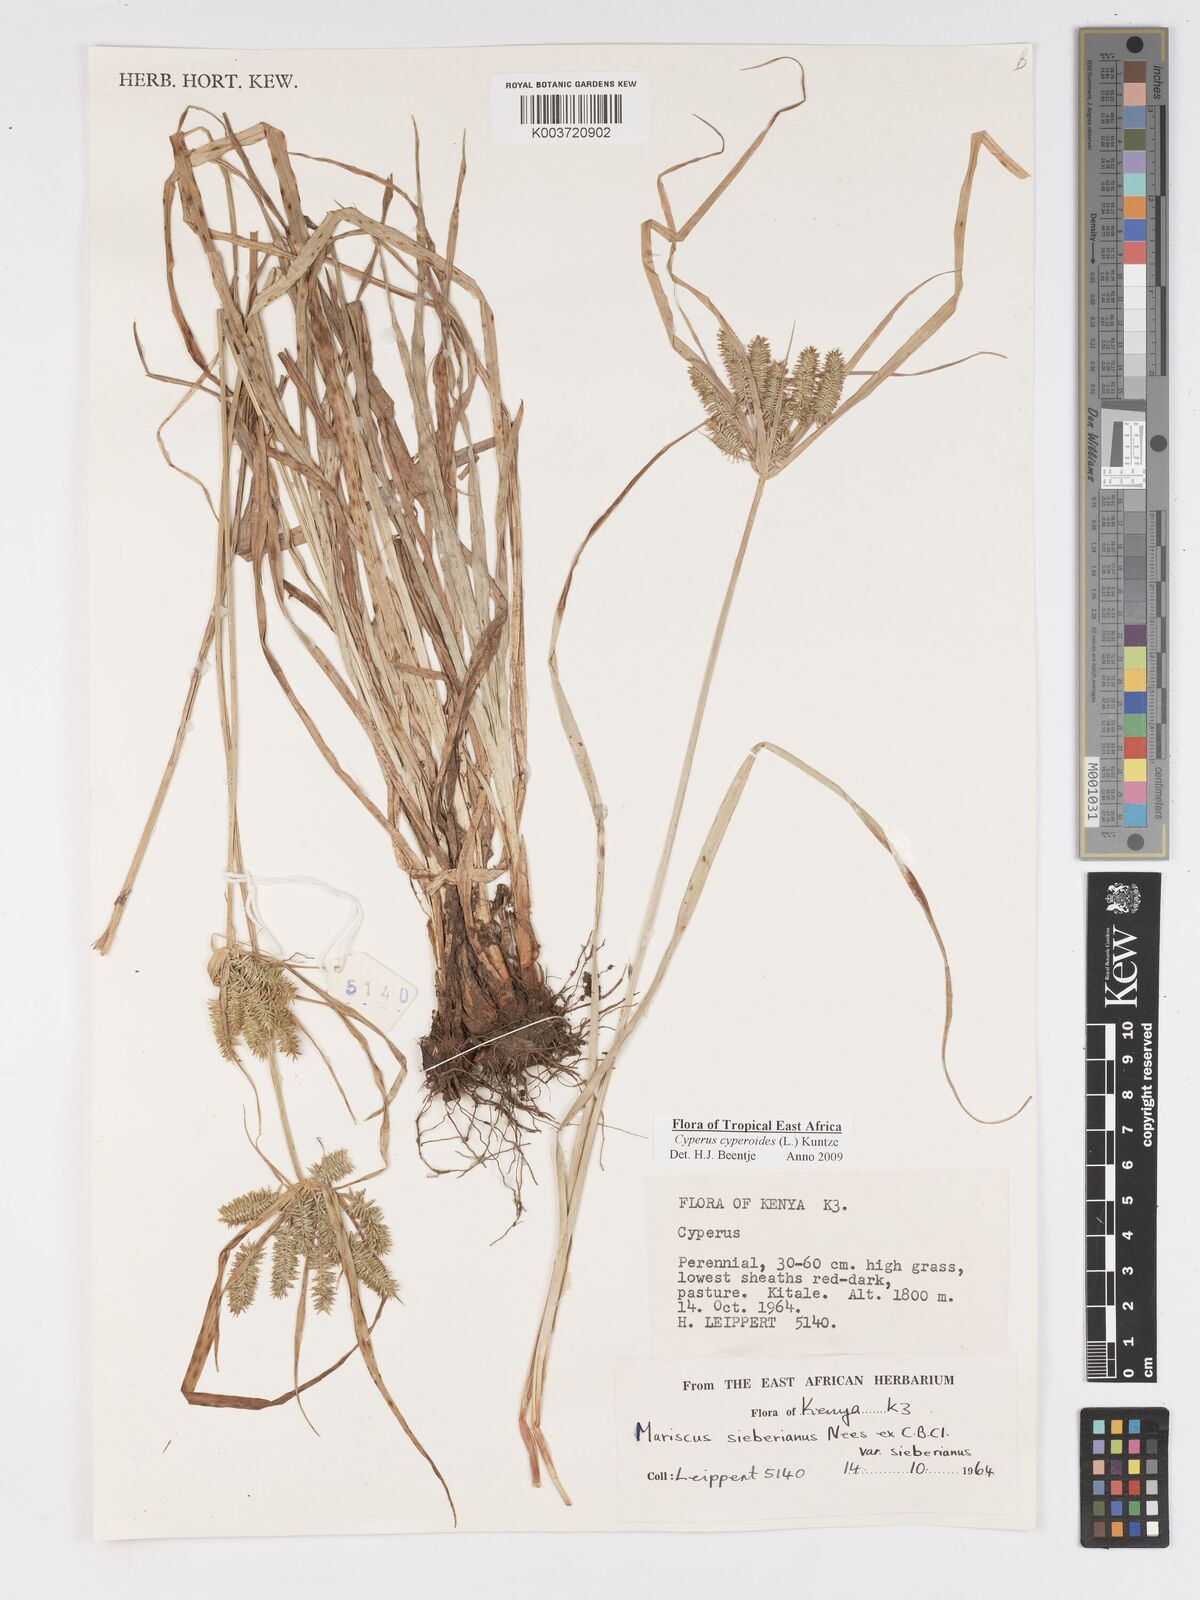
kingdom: Plantae
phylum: Tracheophyta
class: Liliopsida
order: Poales
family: Cyperaceae
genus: Cyperus
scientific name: Cyperus cyperoides
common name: Pacific island flat sedge
